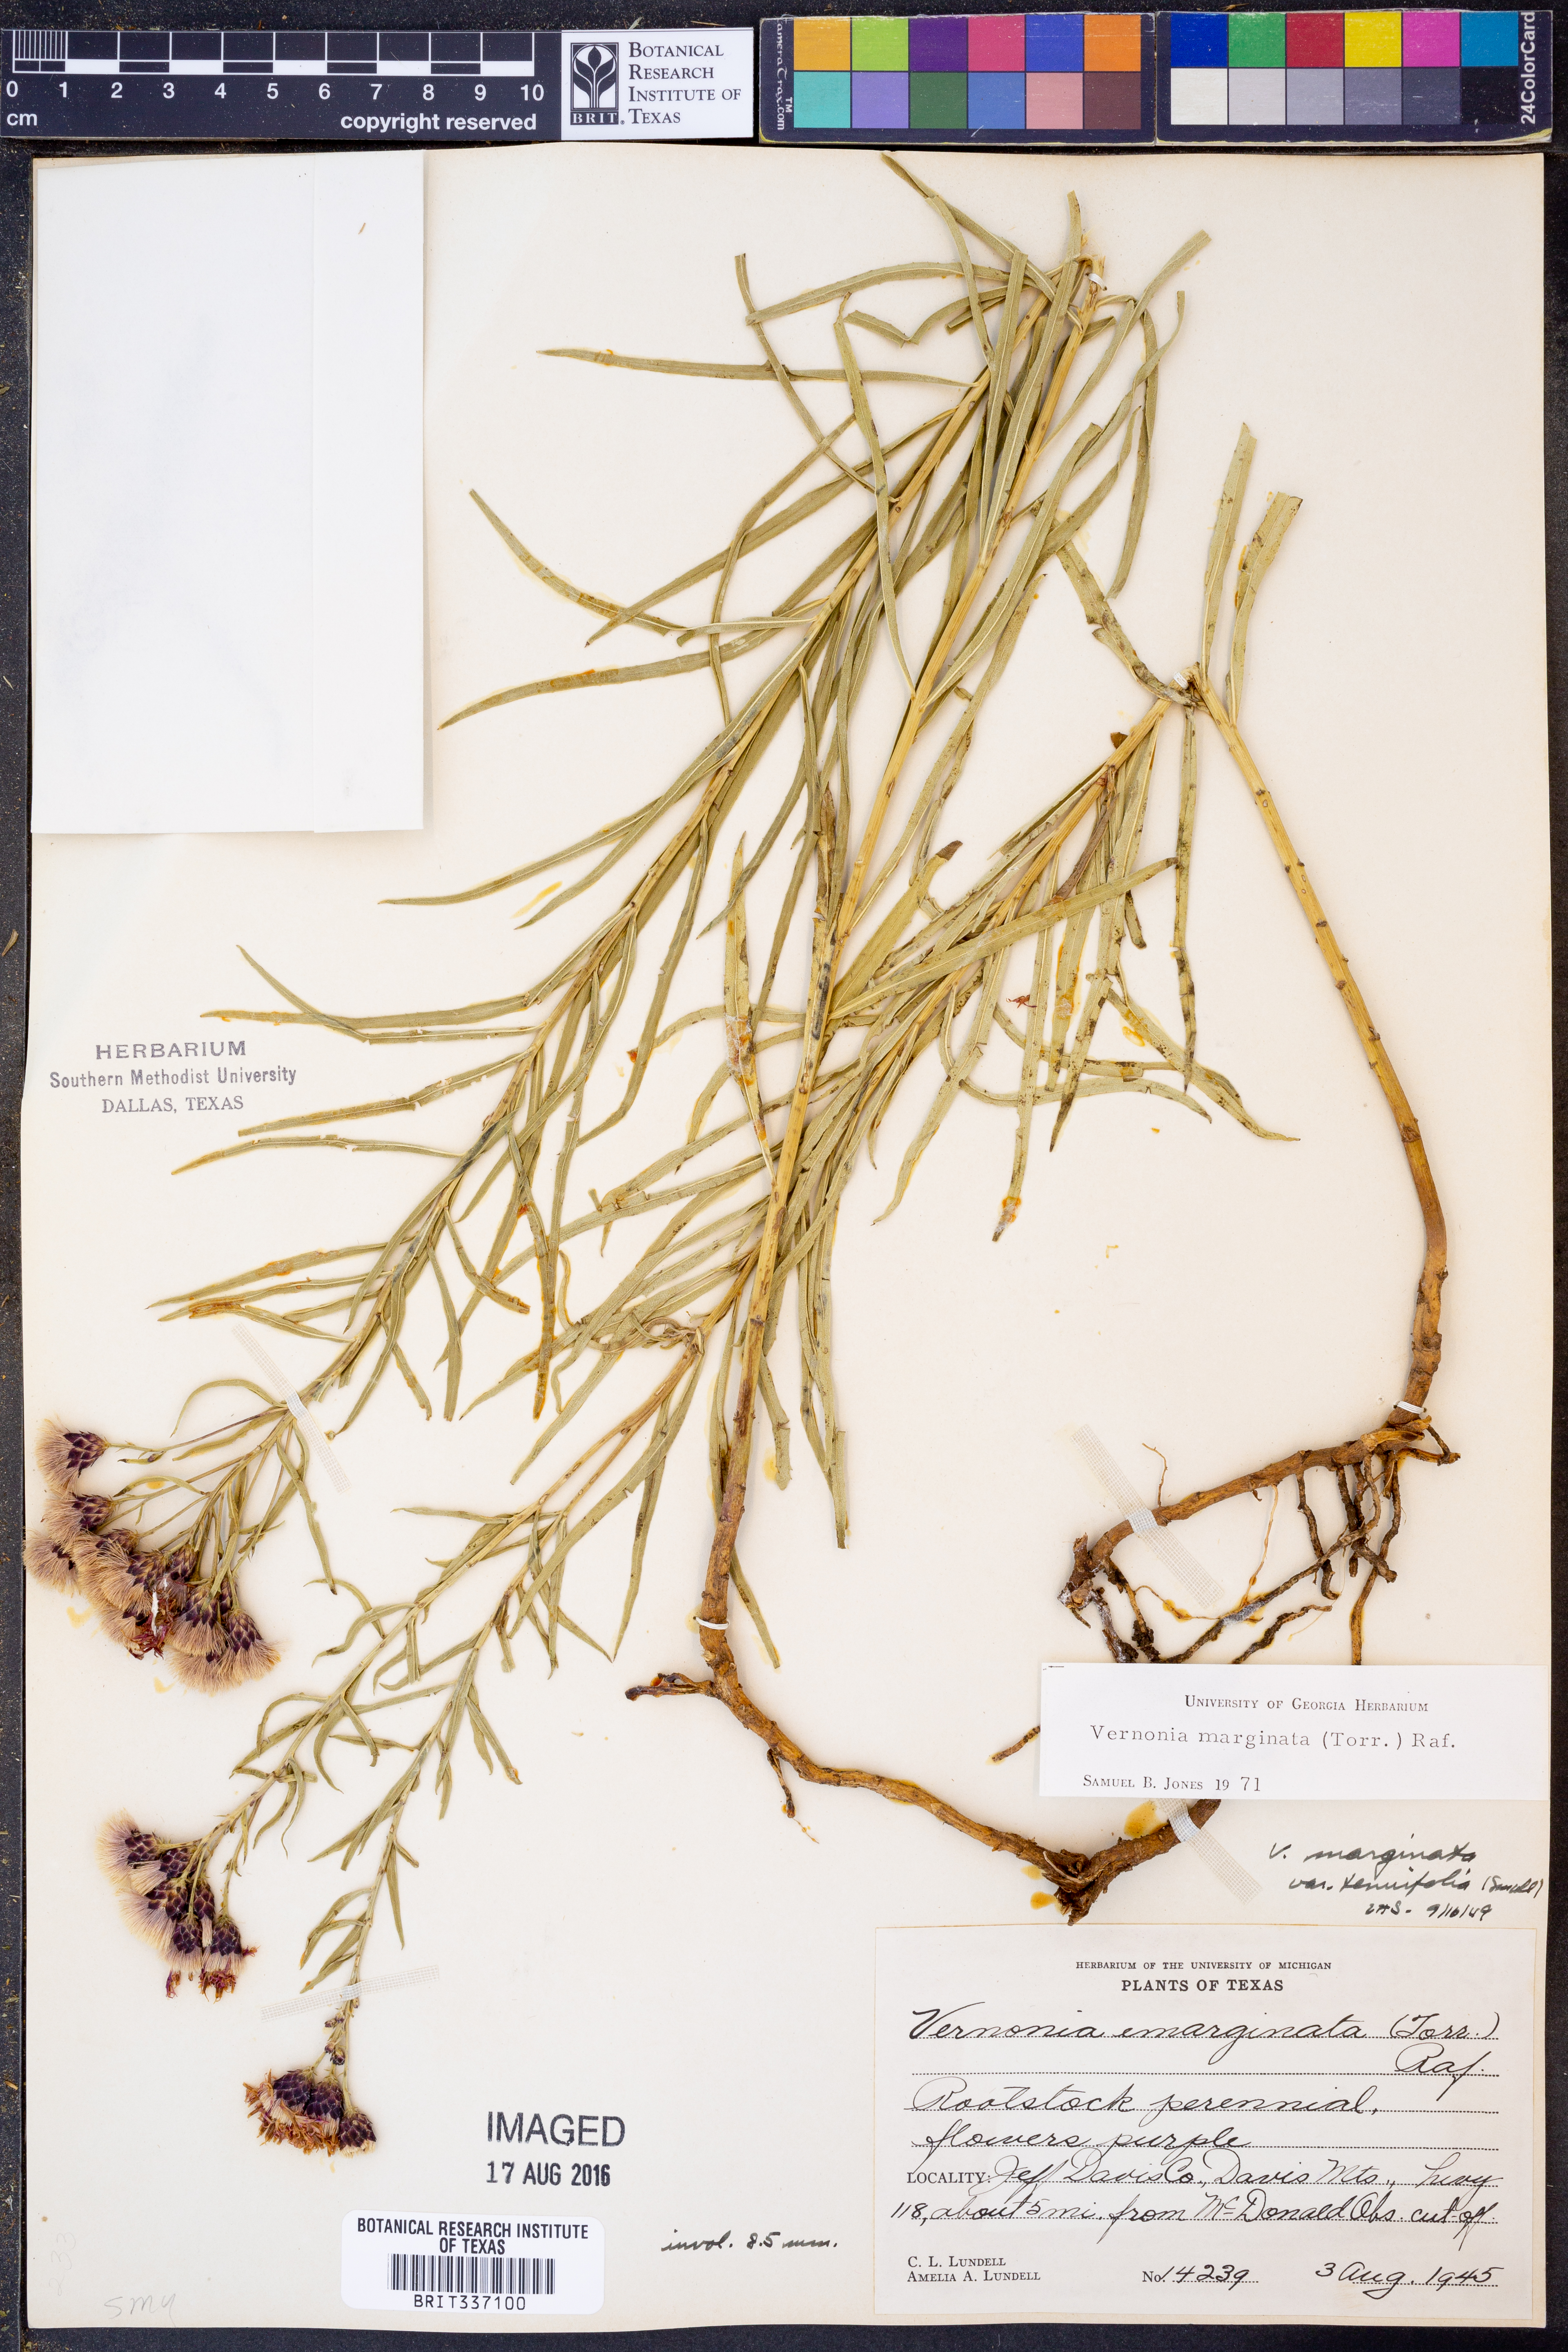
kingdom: Plantae
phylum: Tracheophyta
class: Magnoliopsida
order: Asterales
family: Asteraceae
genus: Vernonia
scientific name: Vernonia marginata
